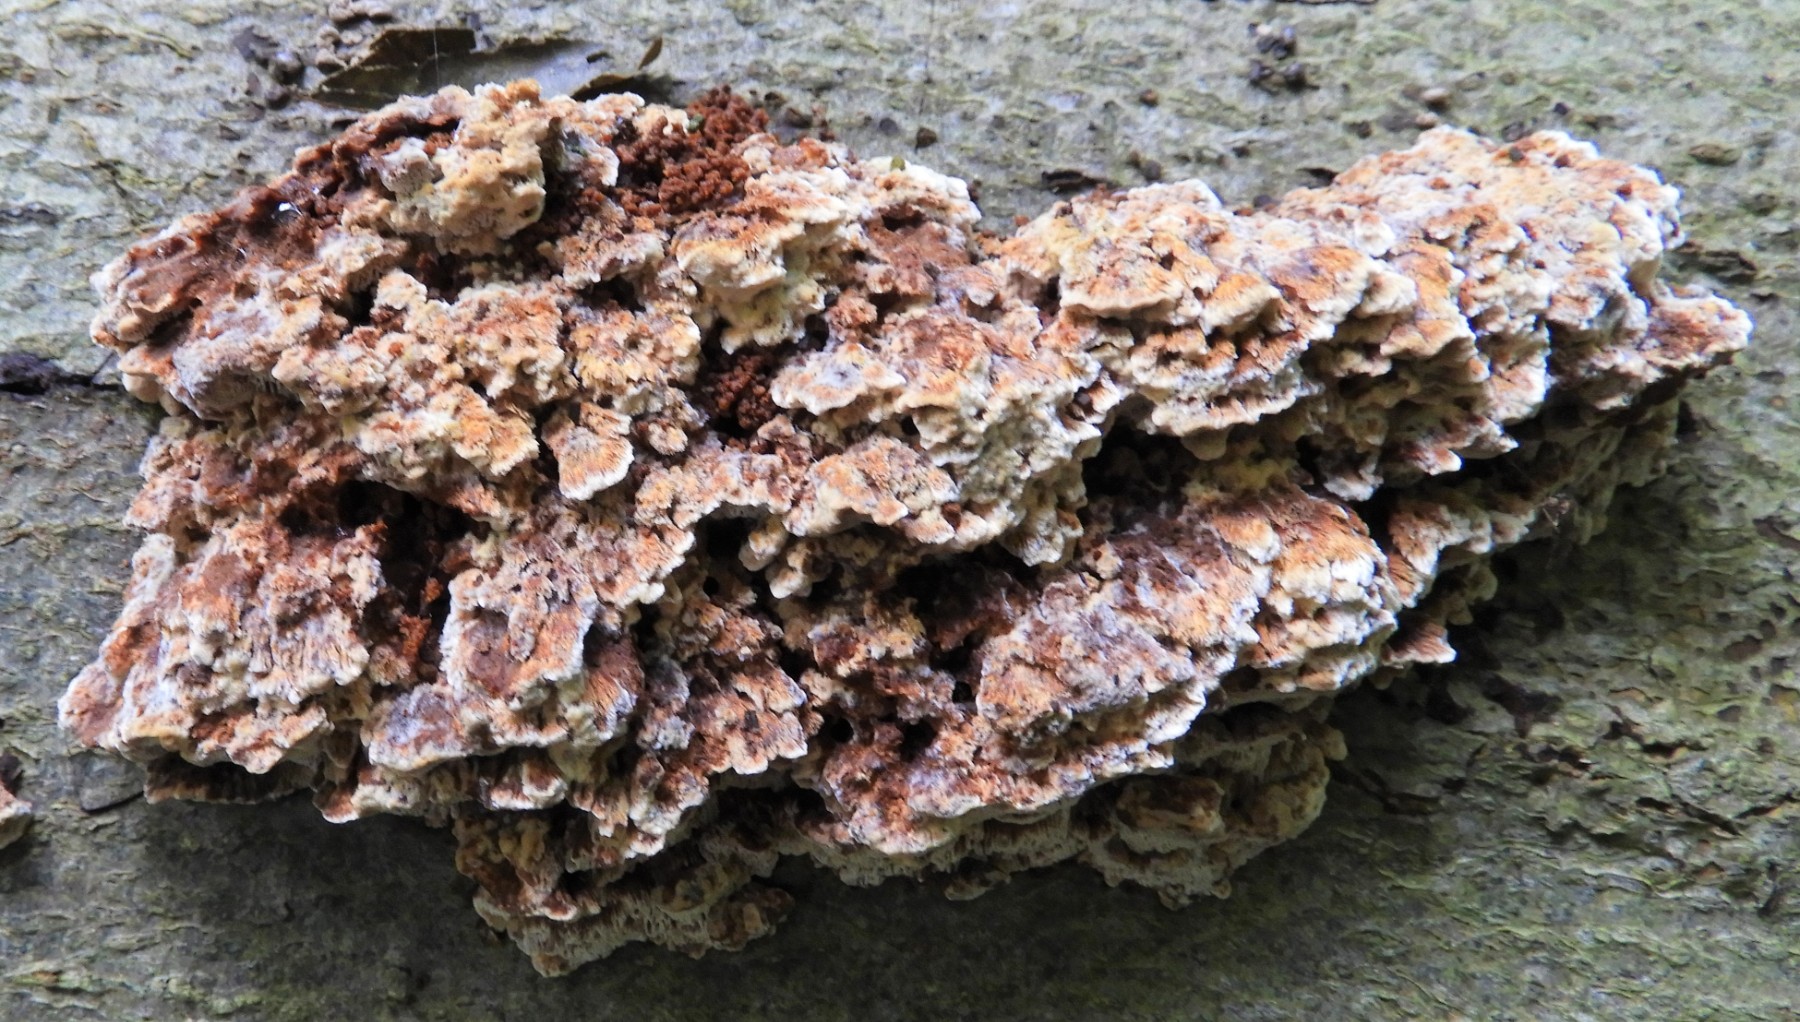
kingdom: Fungi
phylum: Basidiomycota
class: Agaricomycetes
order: Hymenochaetales
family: Hymenochaetaceae
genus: Mensularia
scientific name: Mensularia nodulosa
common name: bøge-spejlporesvamp
